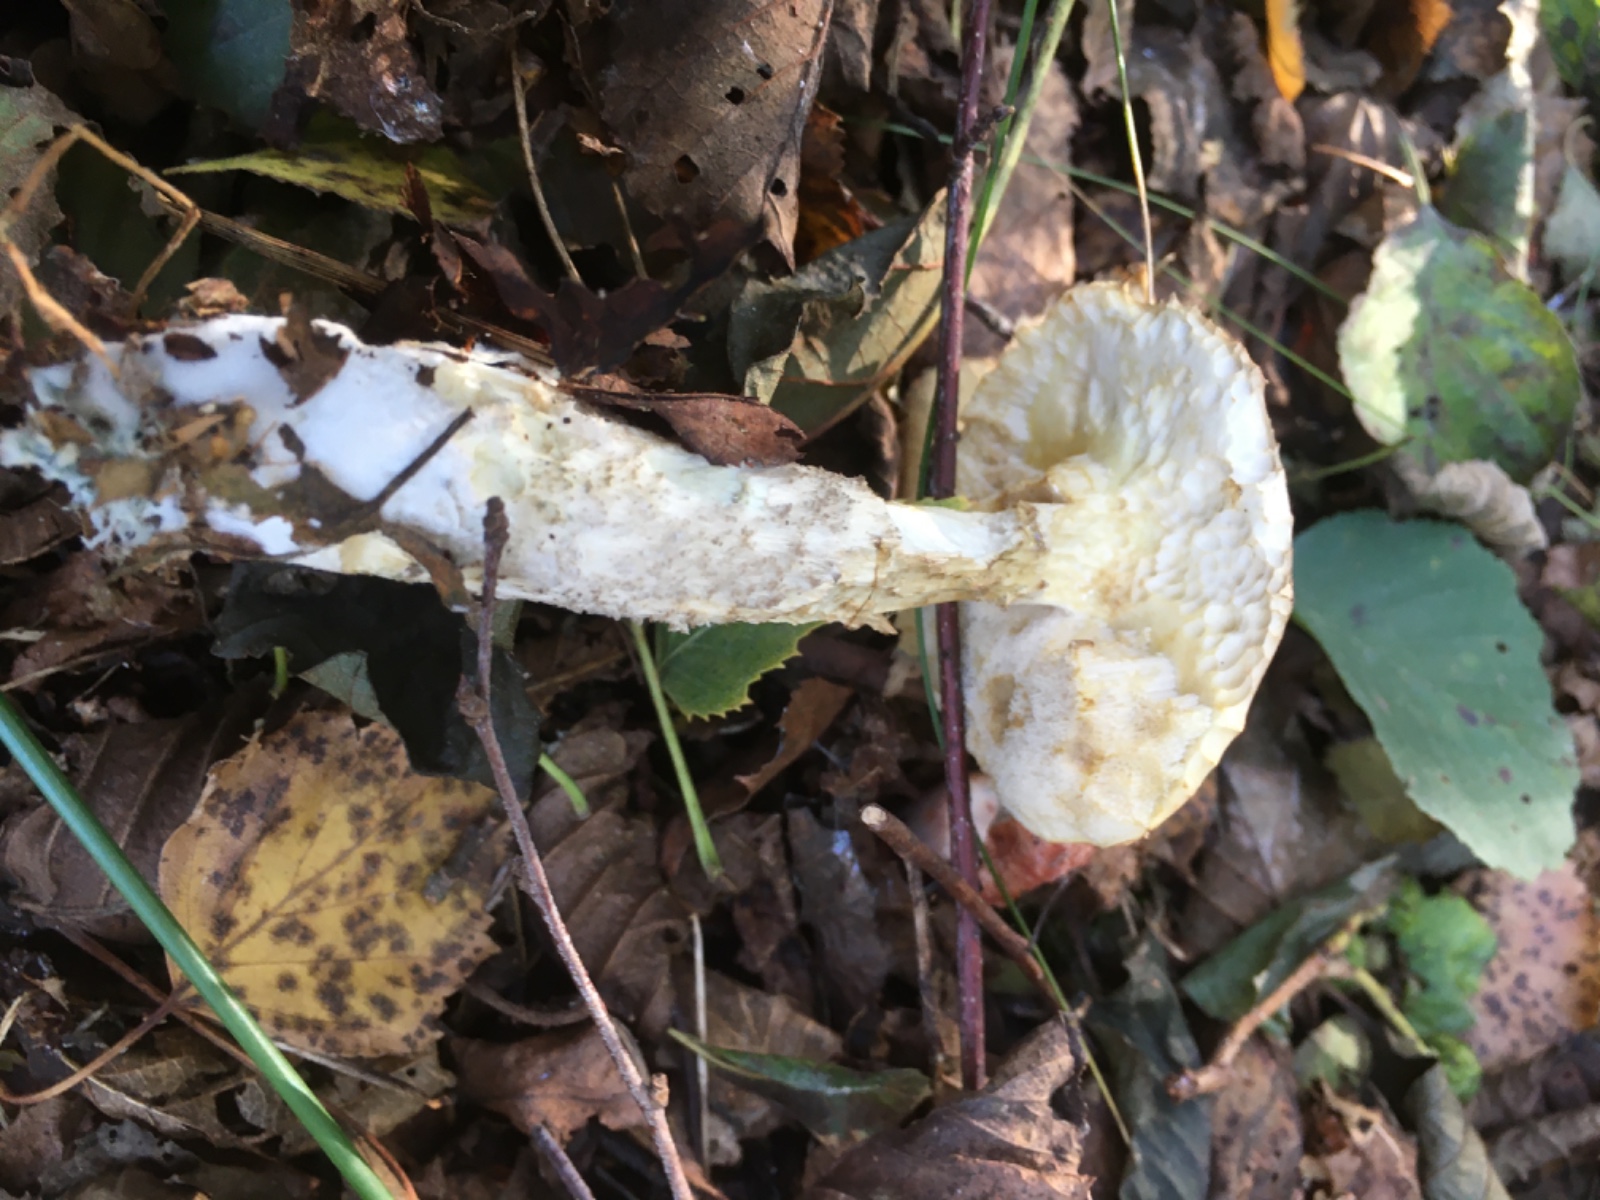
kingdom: Fungi
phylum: Basidiomycota
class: Agaricomycetes
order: Boletales
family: Boletaceae
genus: Leccinum
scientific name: Leccinum
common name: skælrørhat
